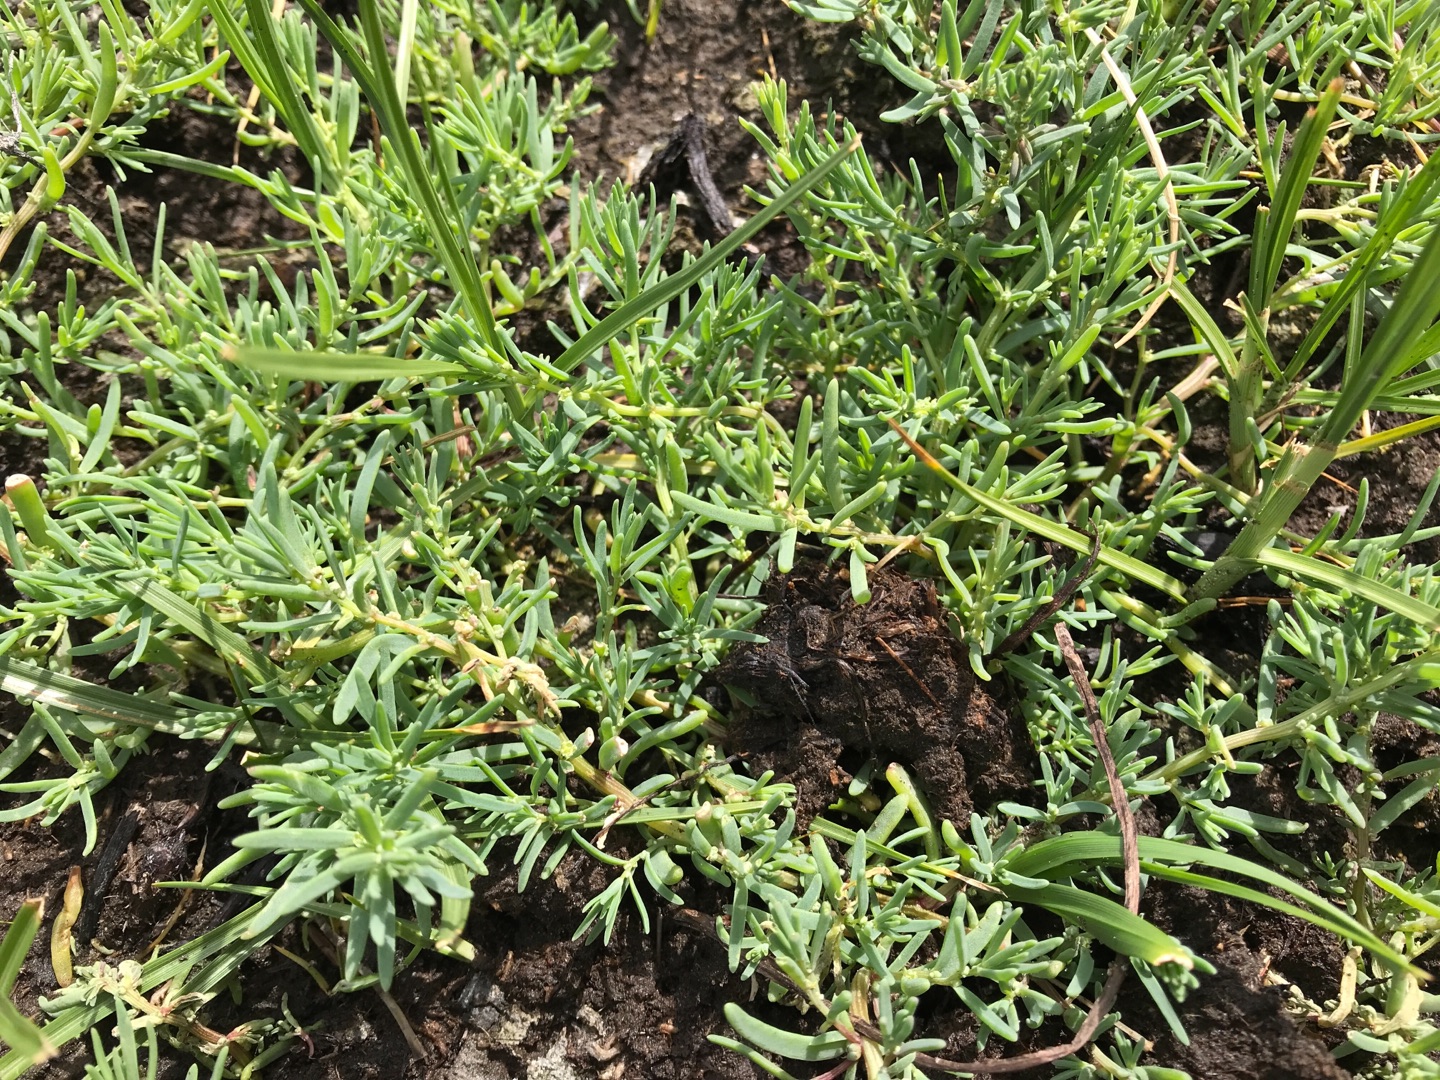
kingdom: Plantae
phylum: Tracheophyta
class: Magnoliopsida
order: Caryophyllales
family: Amaranthaceae
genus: Suaeda
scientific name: Suaeda maritima
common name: Strandgåsefod
